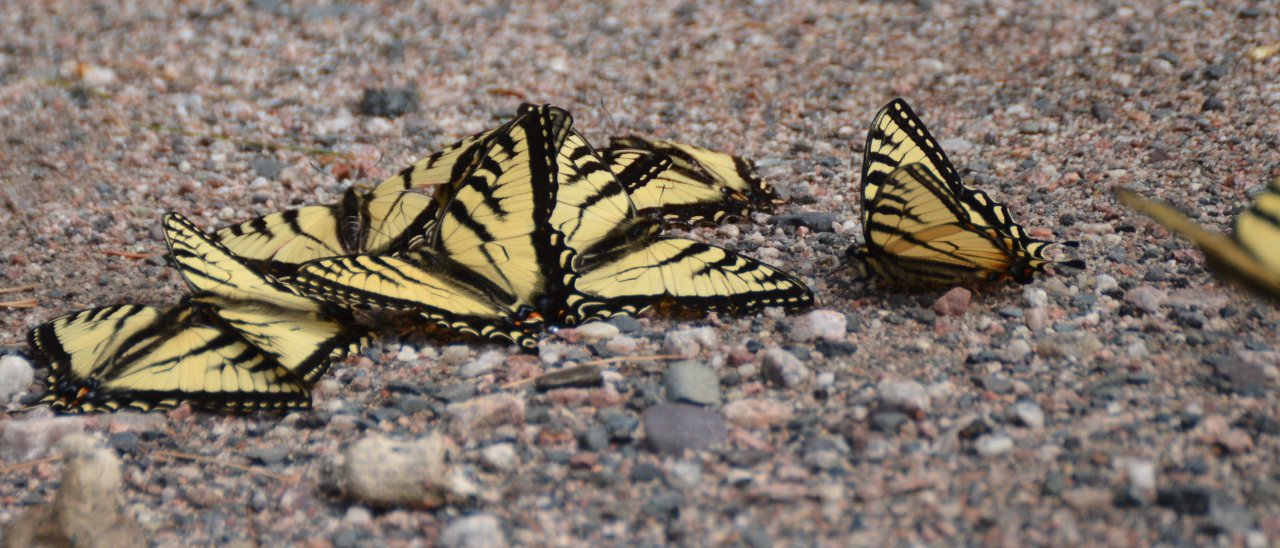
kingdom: Animalia
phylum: Arthropoda
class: Insecta
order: Lepidoptera
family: Papilionidae
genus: Pterourus
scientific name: Pterourus canadensis
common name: Canadian Tiger Swallowtail
